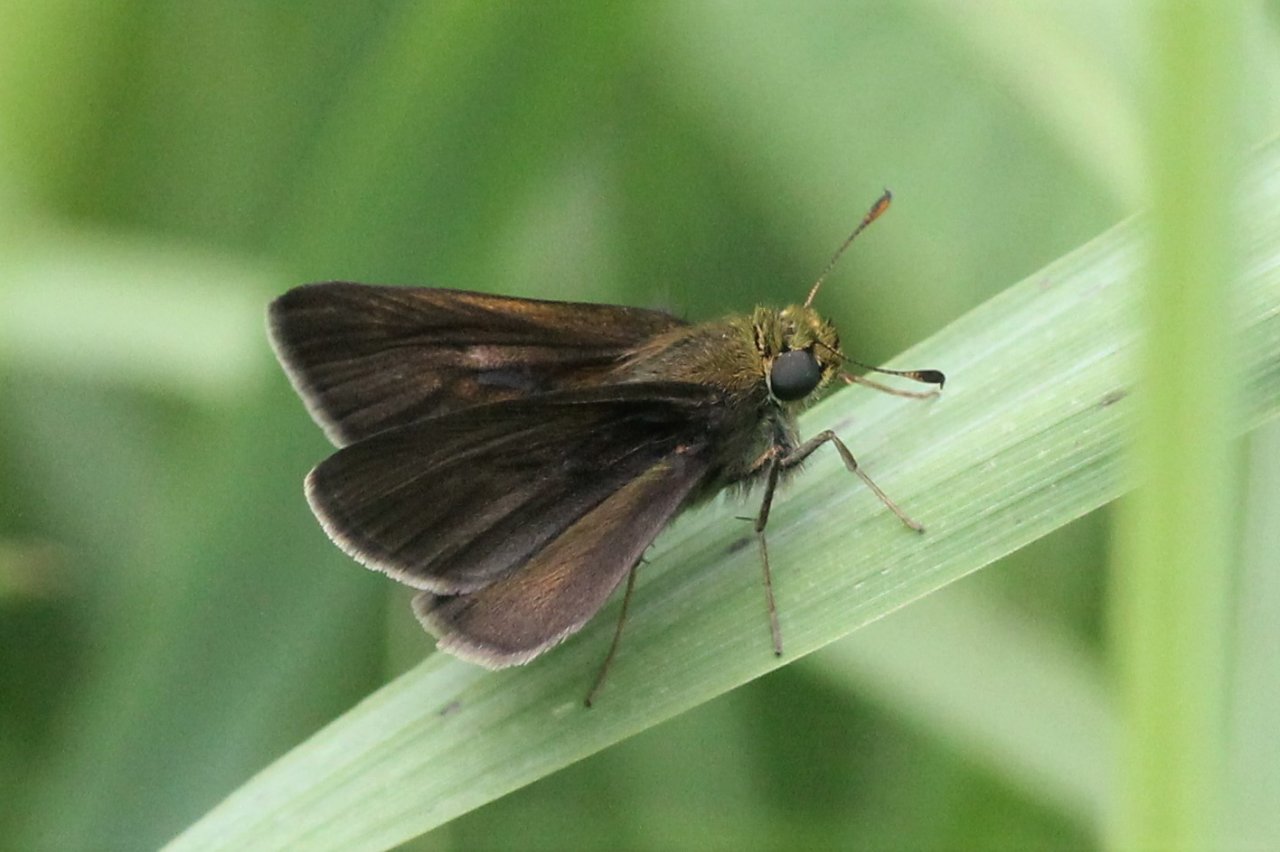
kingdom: Animalia
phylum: Arthropoda
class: Insecta
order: Lepidoptera
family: Hesperiidae
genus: Euphyes
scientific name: Euphyes vestris
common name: Dun Skipper
